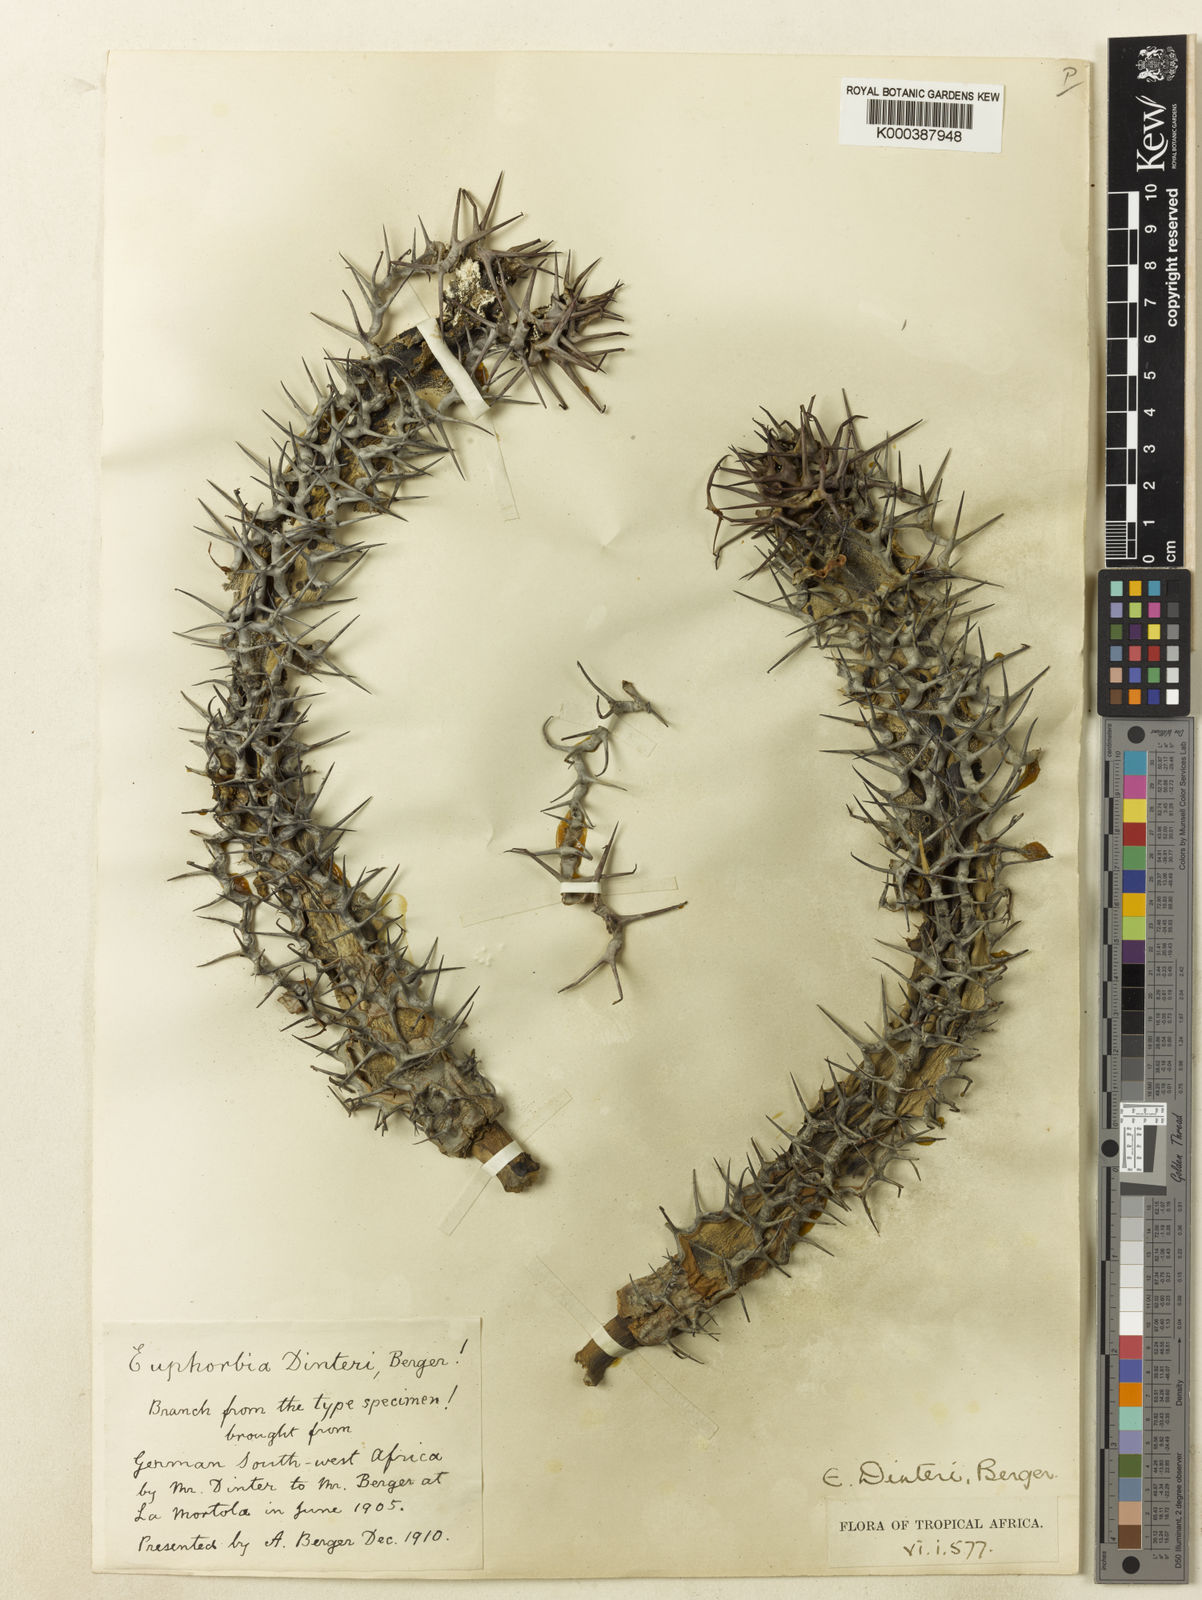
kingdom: Plantae
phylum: Tracheophyta
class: Magnoliopsida
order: Malpighiales
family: Euphorbiaceae
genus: Euphorbia
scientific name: Euphorbia virosa
